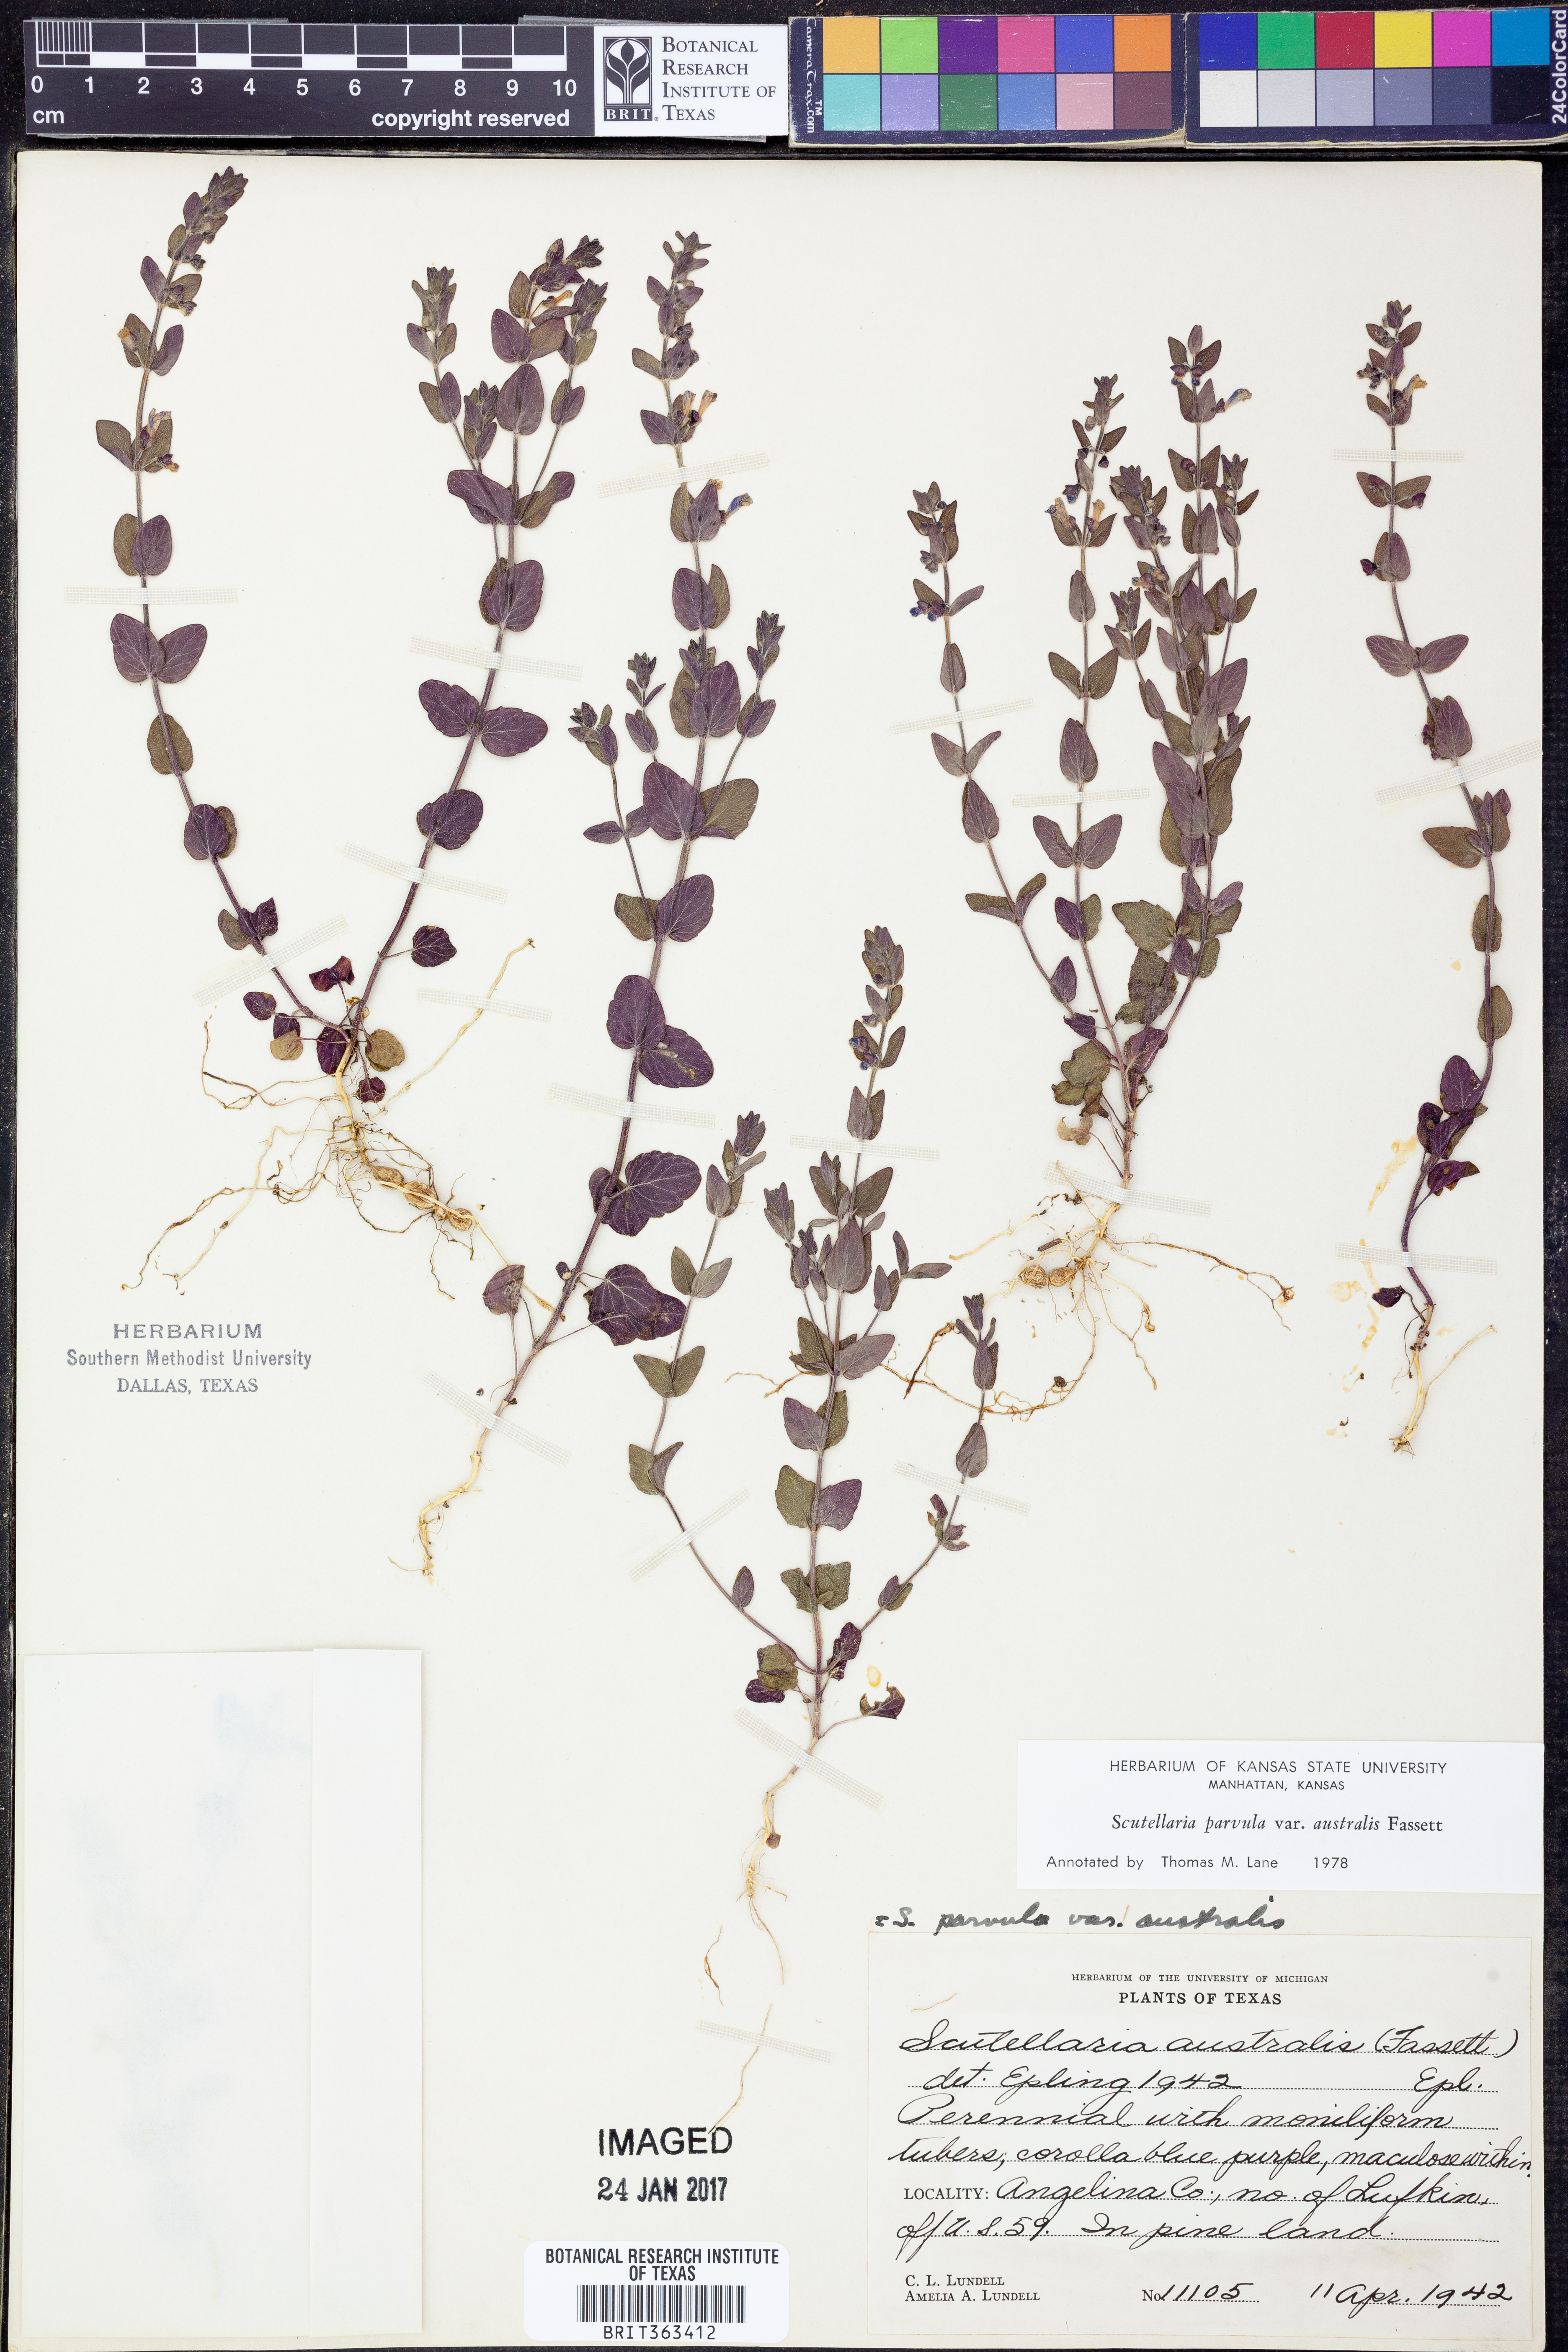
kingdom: Plantae
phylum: Tracheophyta
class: Magnoliopsida
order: Lamiales
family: Lamiaceae
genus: Scutellaria
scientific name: Scutellaria parvula
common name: Little scullcap
